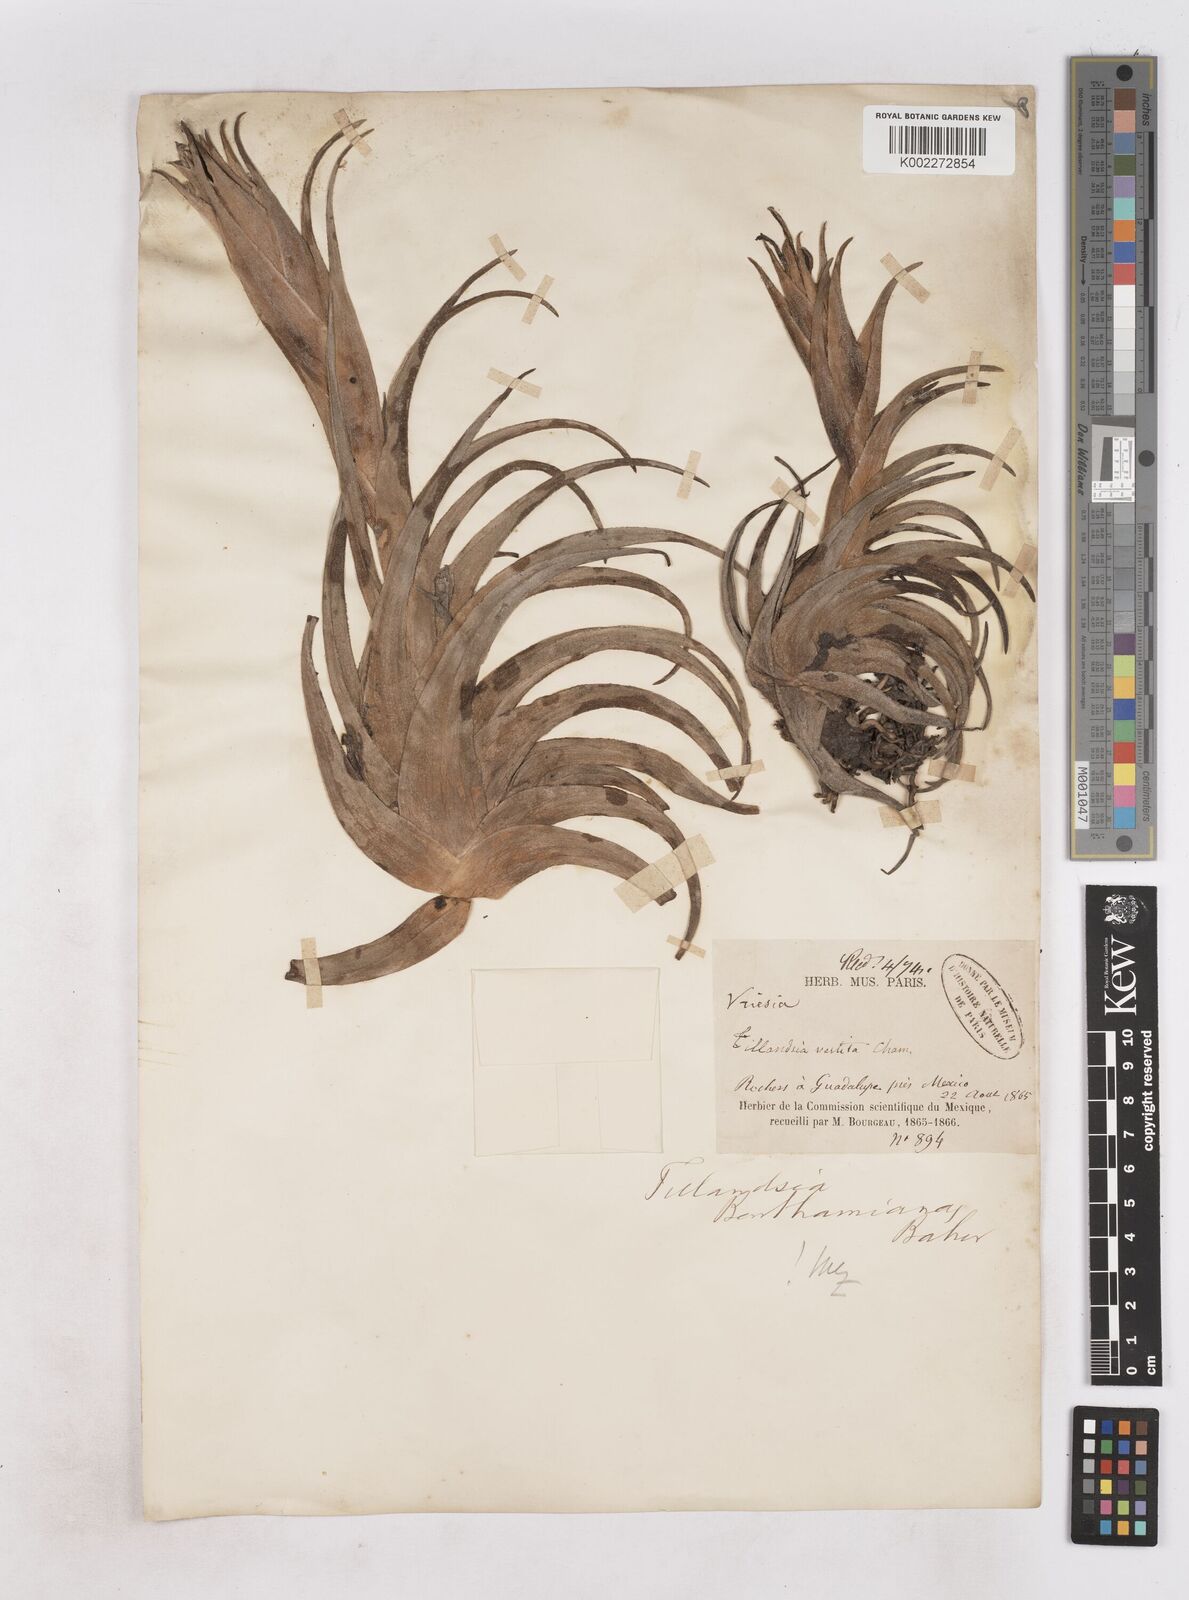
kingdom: Plantae
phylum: Tracheophyta
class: Liliopsida
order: Poales
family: Bromeliaceae
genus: Tillandsia
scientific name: Tillandsia erubescens
